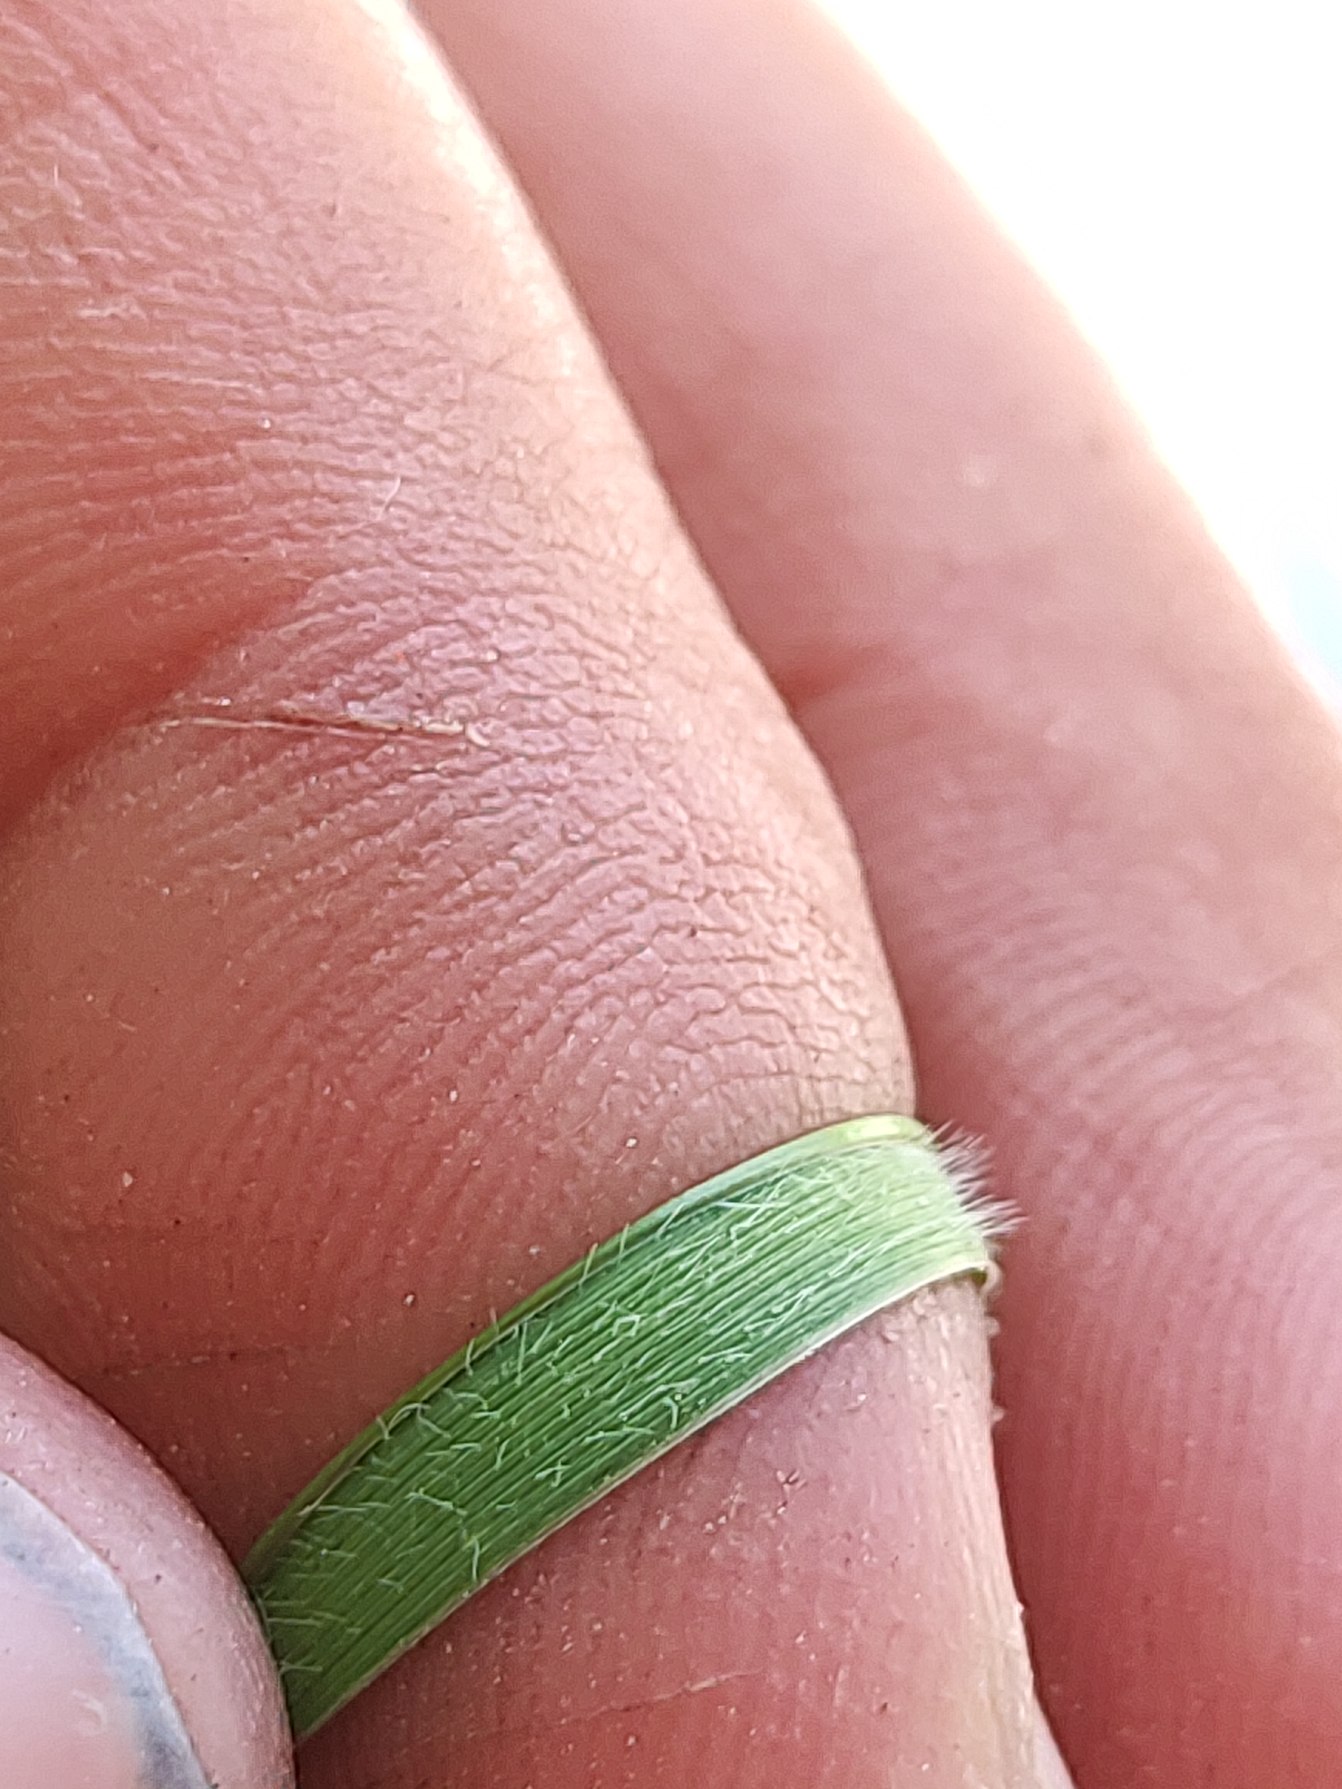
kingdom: Plantae
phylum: Tracheophyta
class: Liliopsida
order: Poales
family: Poaceae
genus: Elymus
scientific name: Elymus repens
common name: Almindelig kvik
